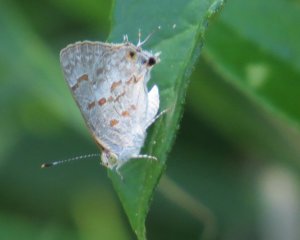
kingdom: Animalia
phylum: Arthropoda
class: Insecta
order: Lepidoptera
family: Lycaenidae
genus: Ministrymon
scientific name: Ministrymon clytie
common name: Clytie Ministreak
